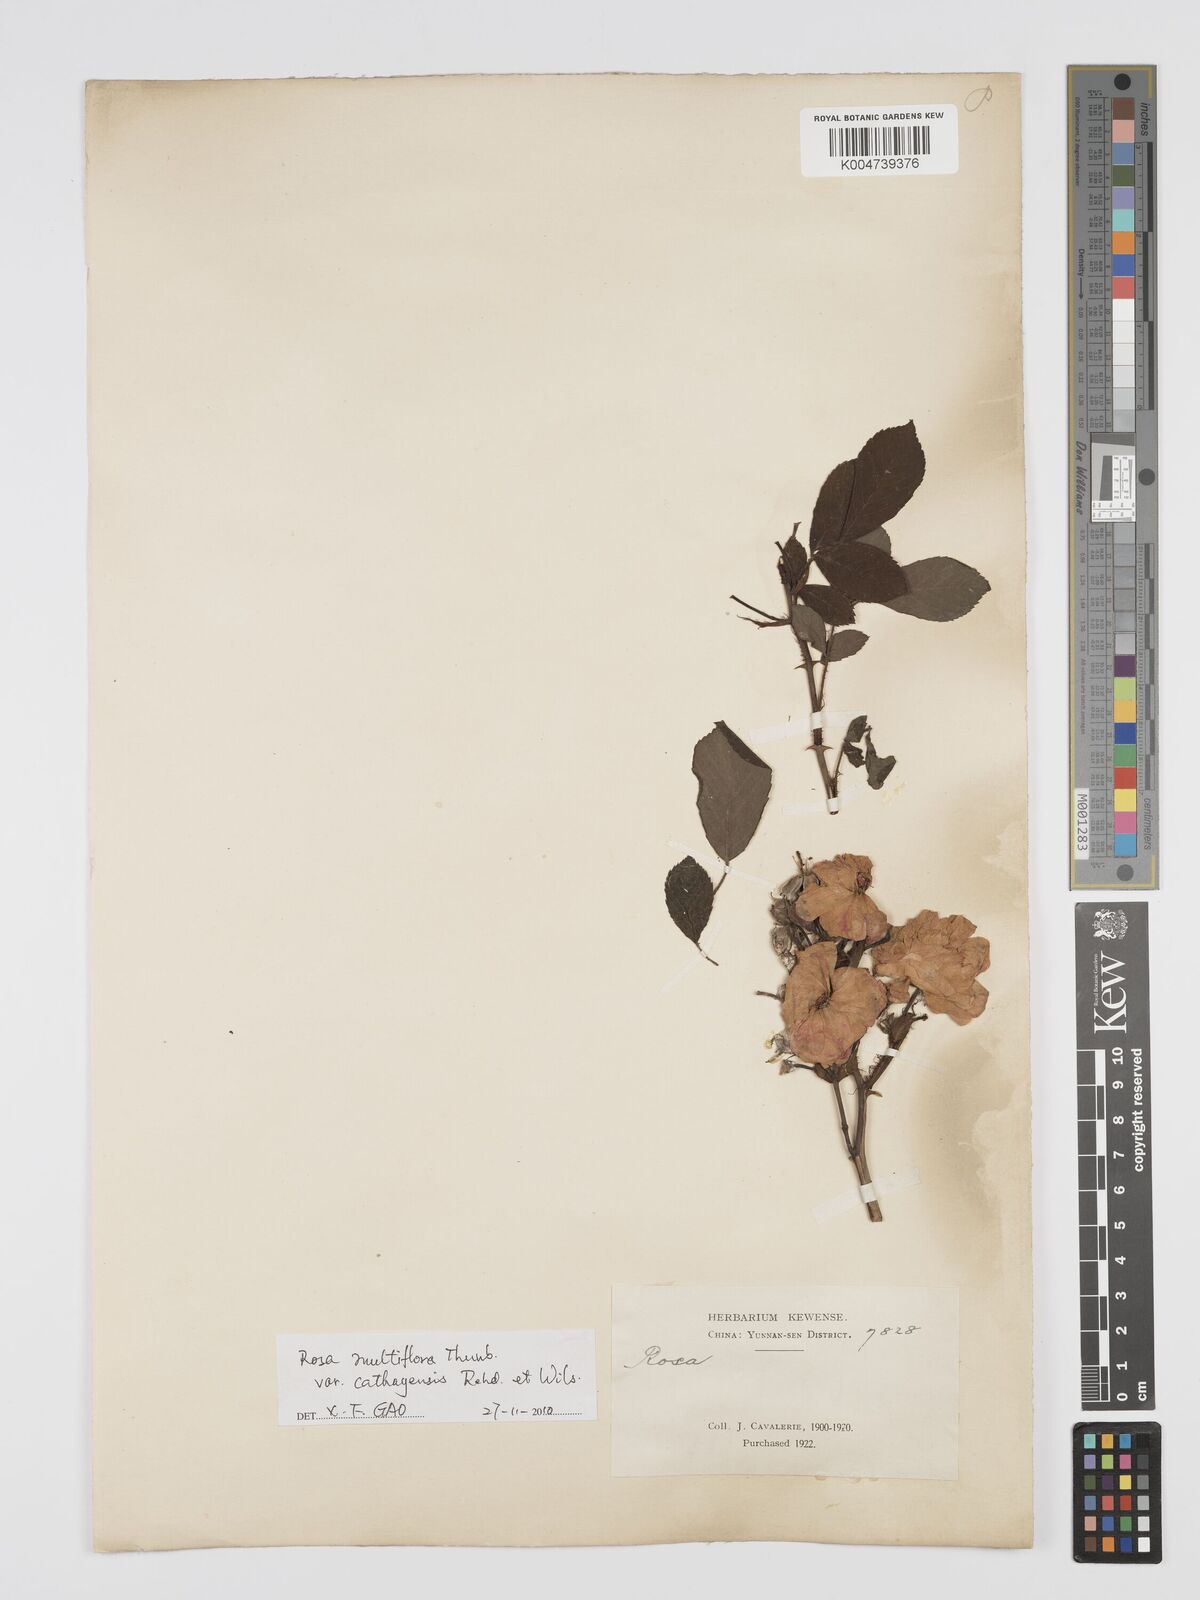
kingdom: Plantae
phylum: Tracheophyta
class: Magnoliopsida
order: Rosales
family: Rosaceae
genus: Rosa
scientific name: Rosa multiflora
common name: Multiflora rose
